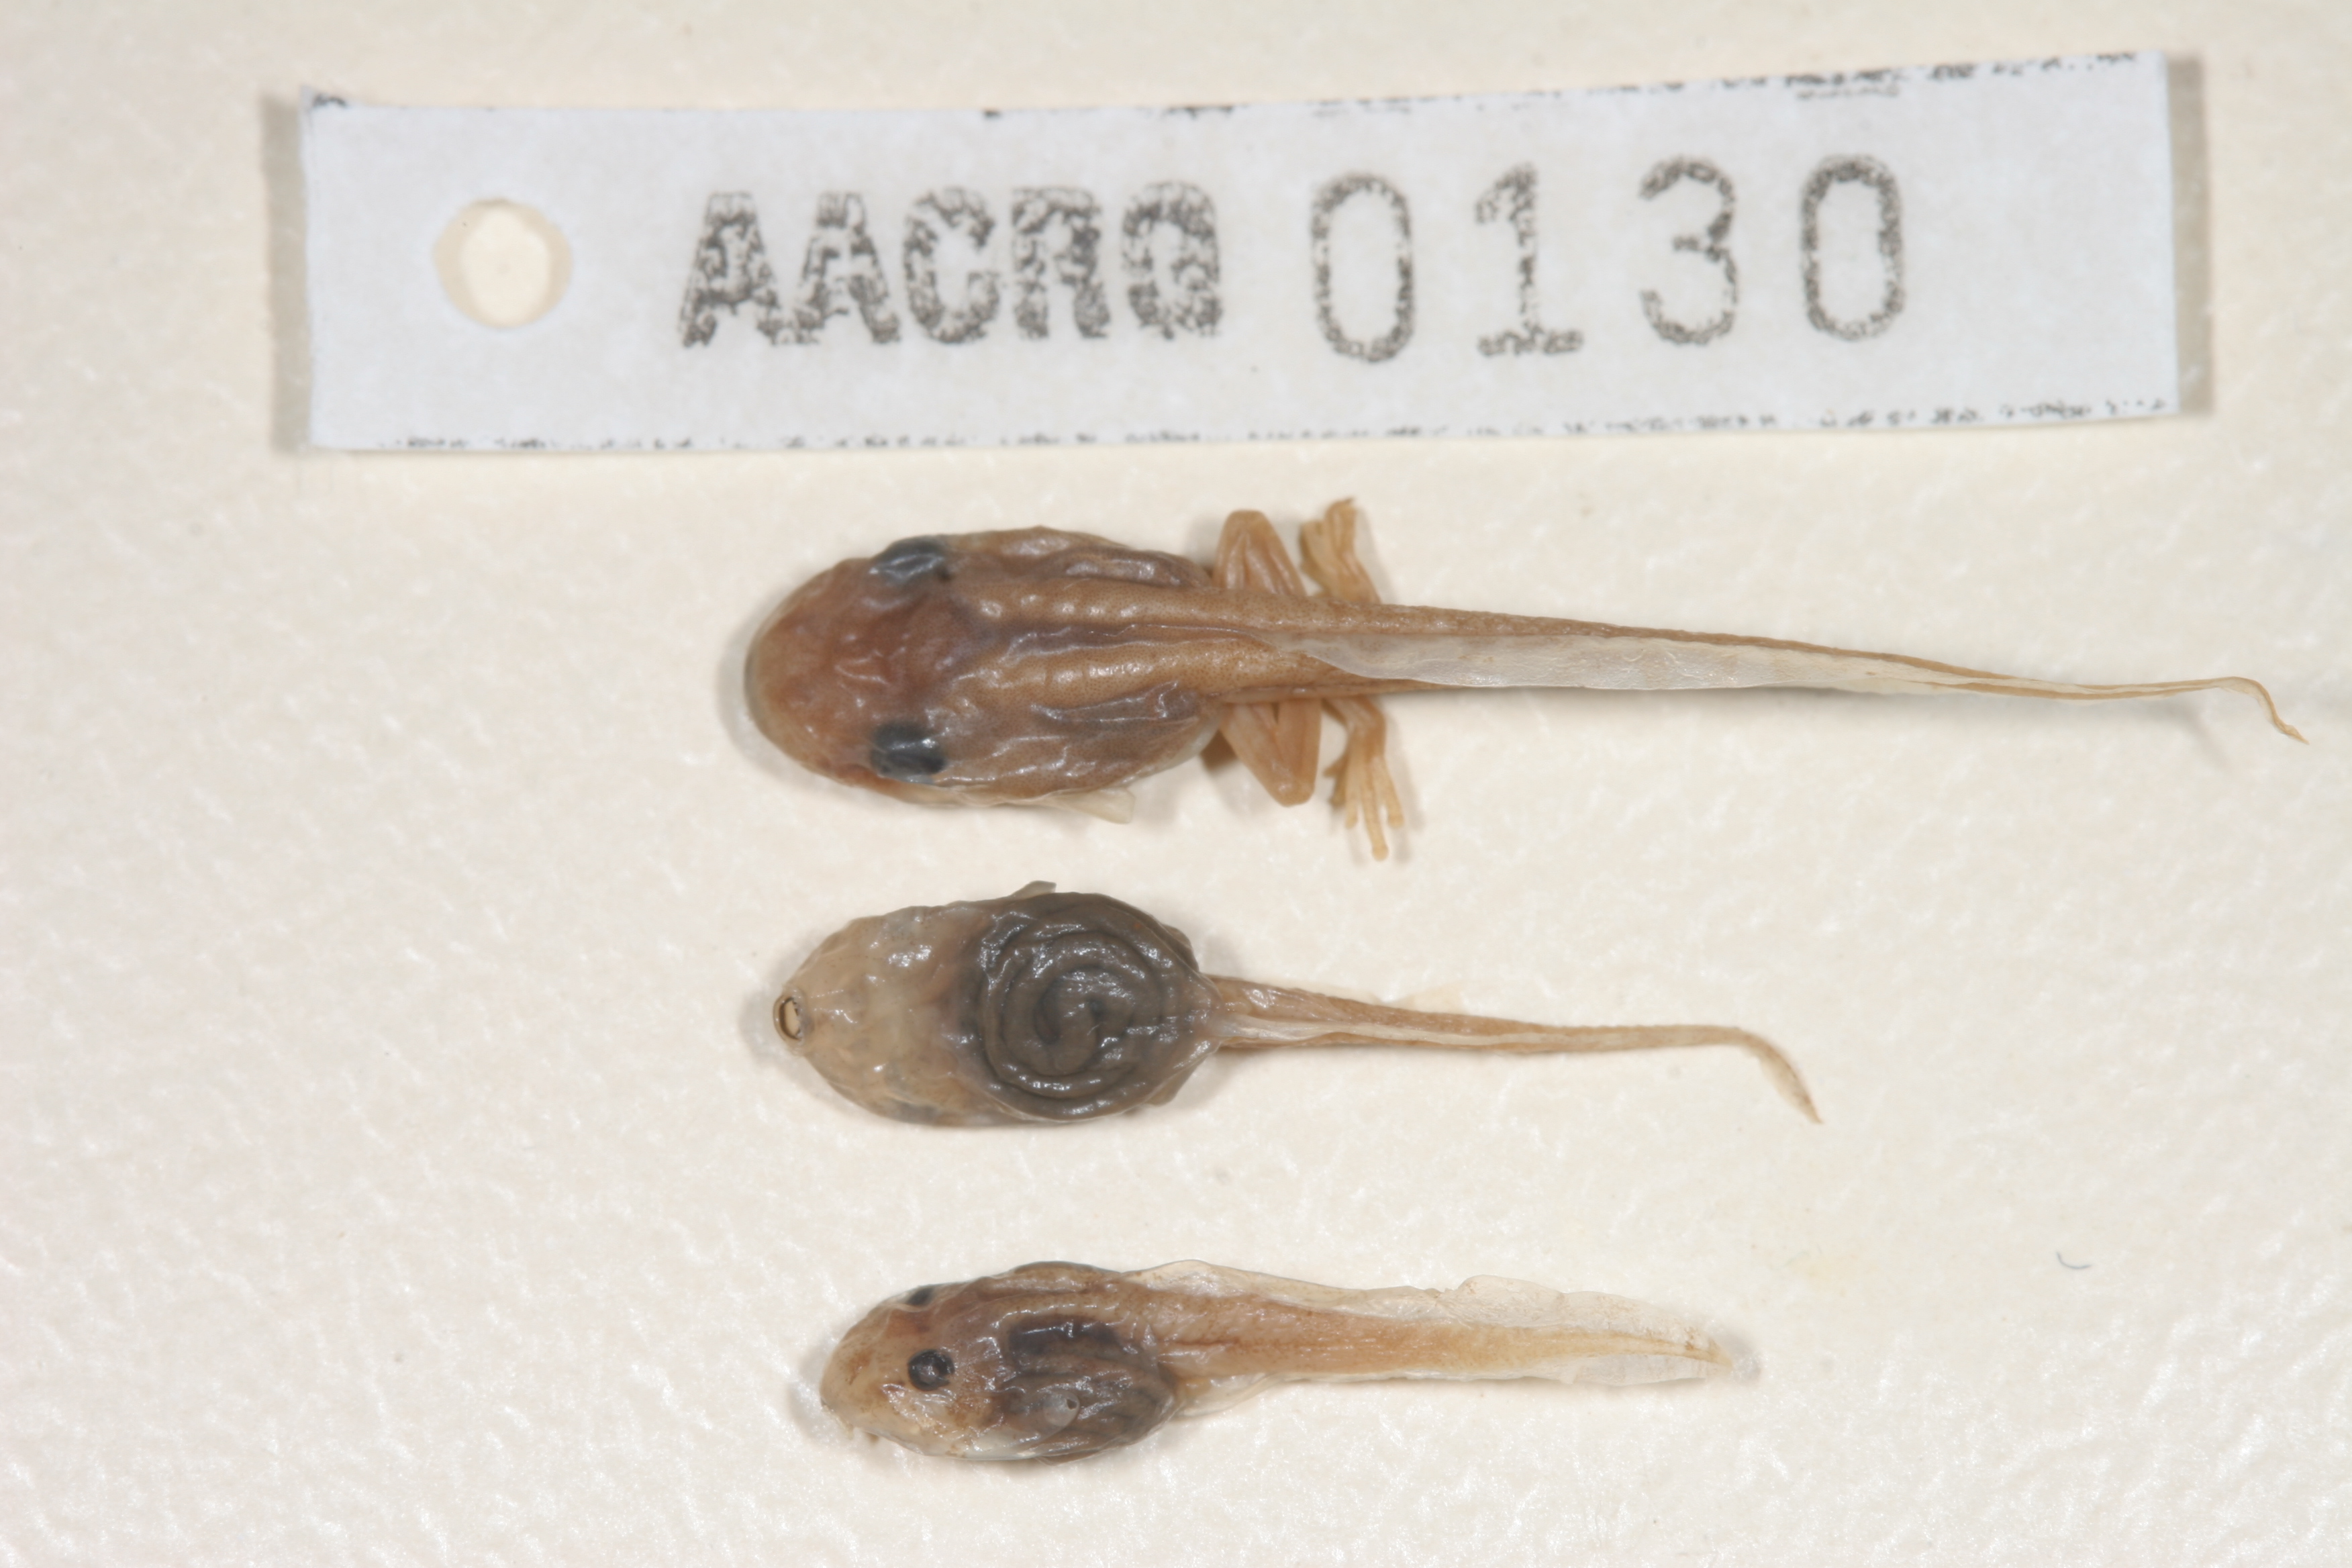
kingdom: Animalia
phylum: Chordata
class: Amphibia
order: Anura
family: Hyperoliidae
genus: Hyperolius
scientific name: Hyperolius semidiscus
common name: Yellow-striped reed frog
